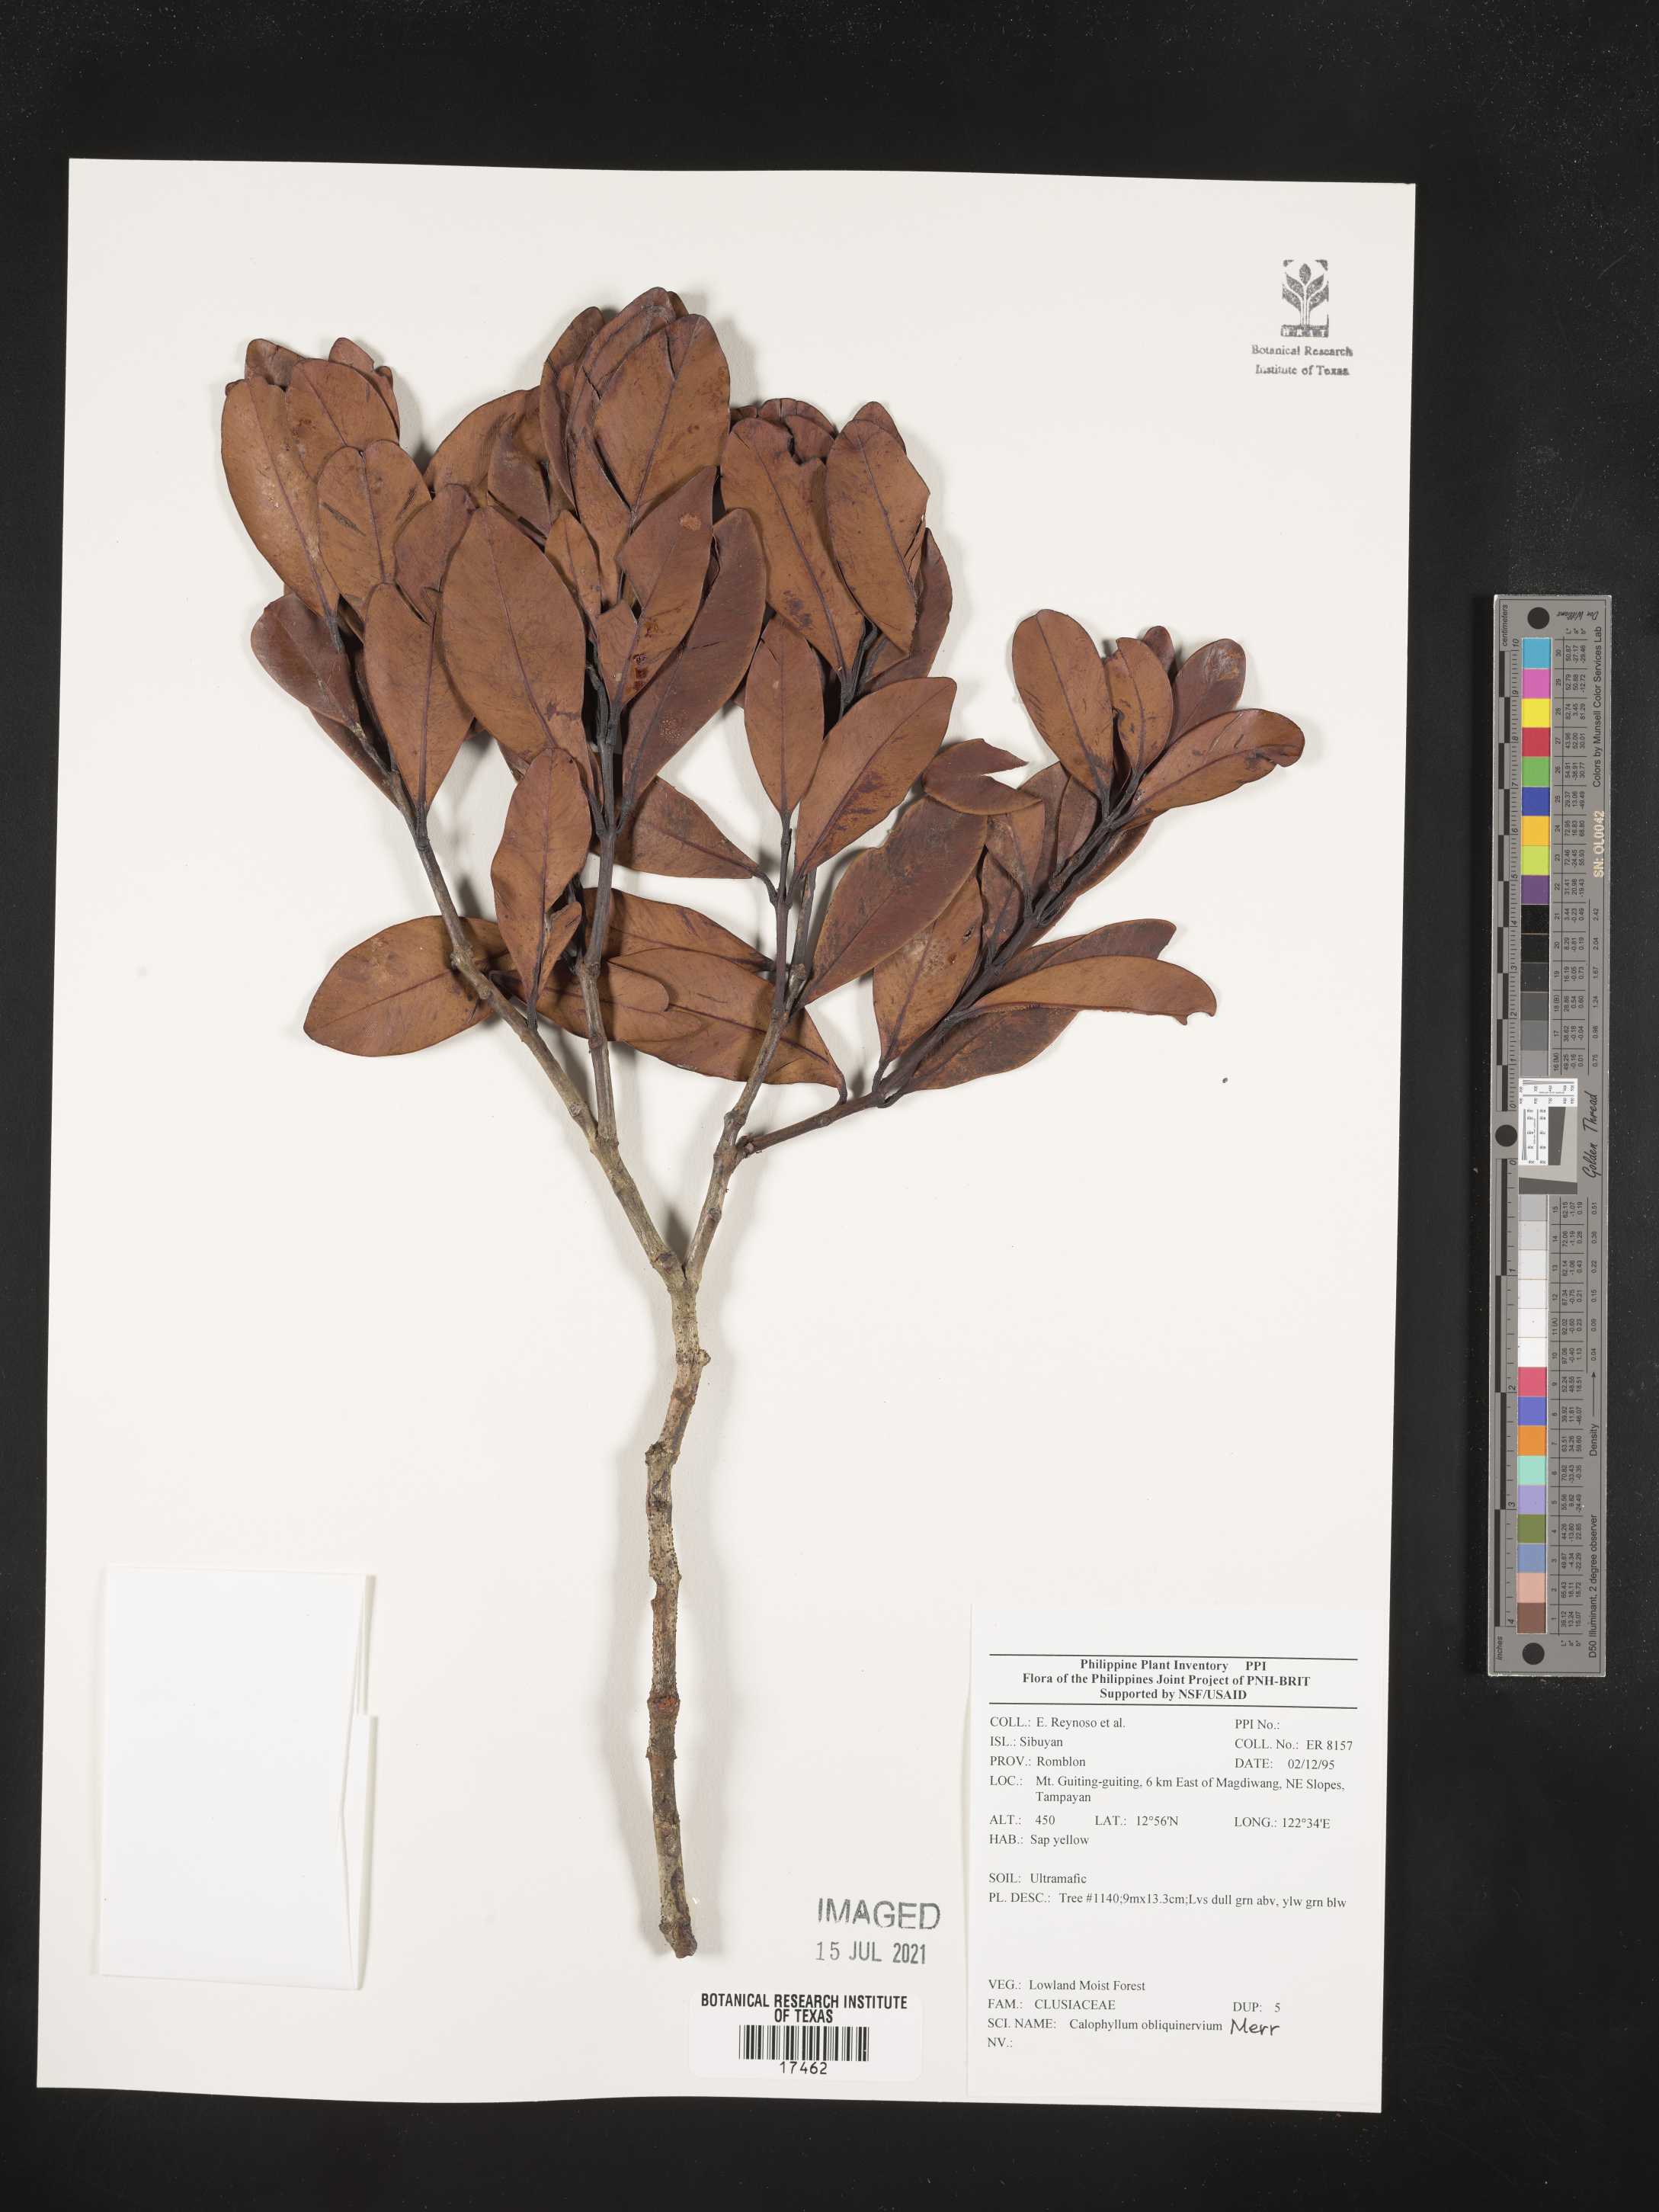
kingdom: Plantae
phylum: Tracheophyta
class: Magnoliopsida
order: Malpighiales
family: Calophyllaceae
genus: Calophyllum
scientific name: Calophyllum obliquinervium
